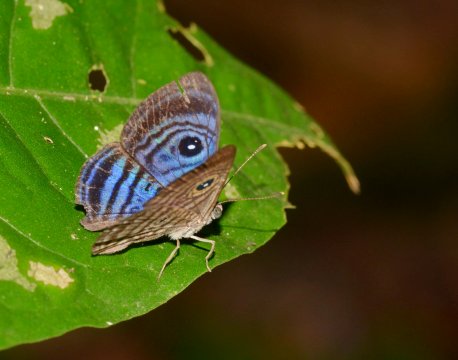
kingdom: Animalia
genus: Mesosemia
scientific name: Mesosemia hesperina
